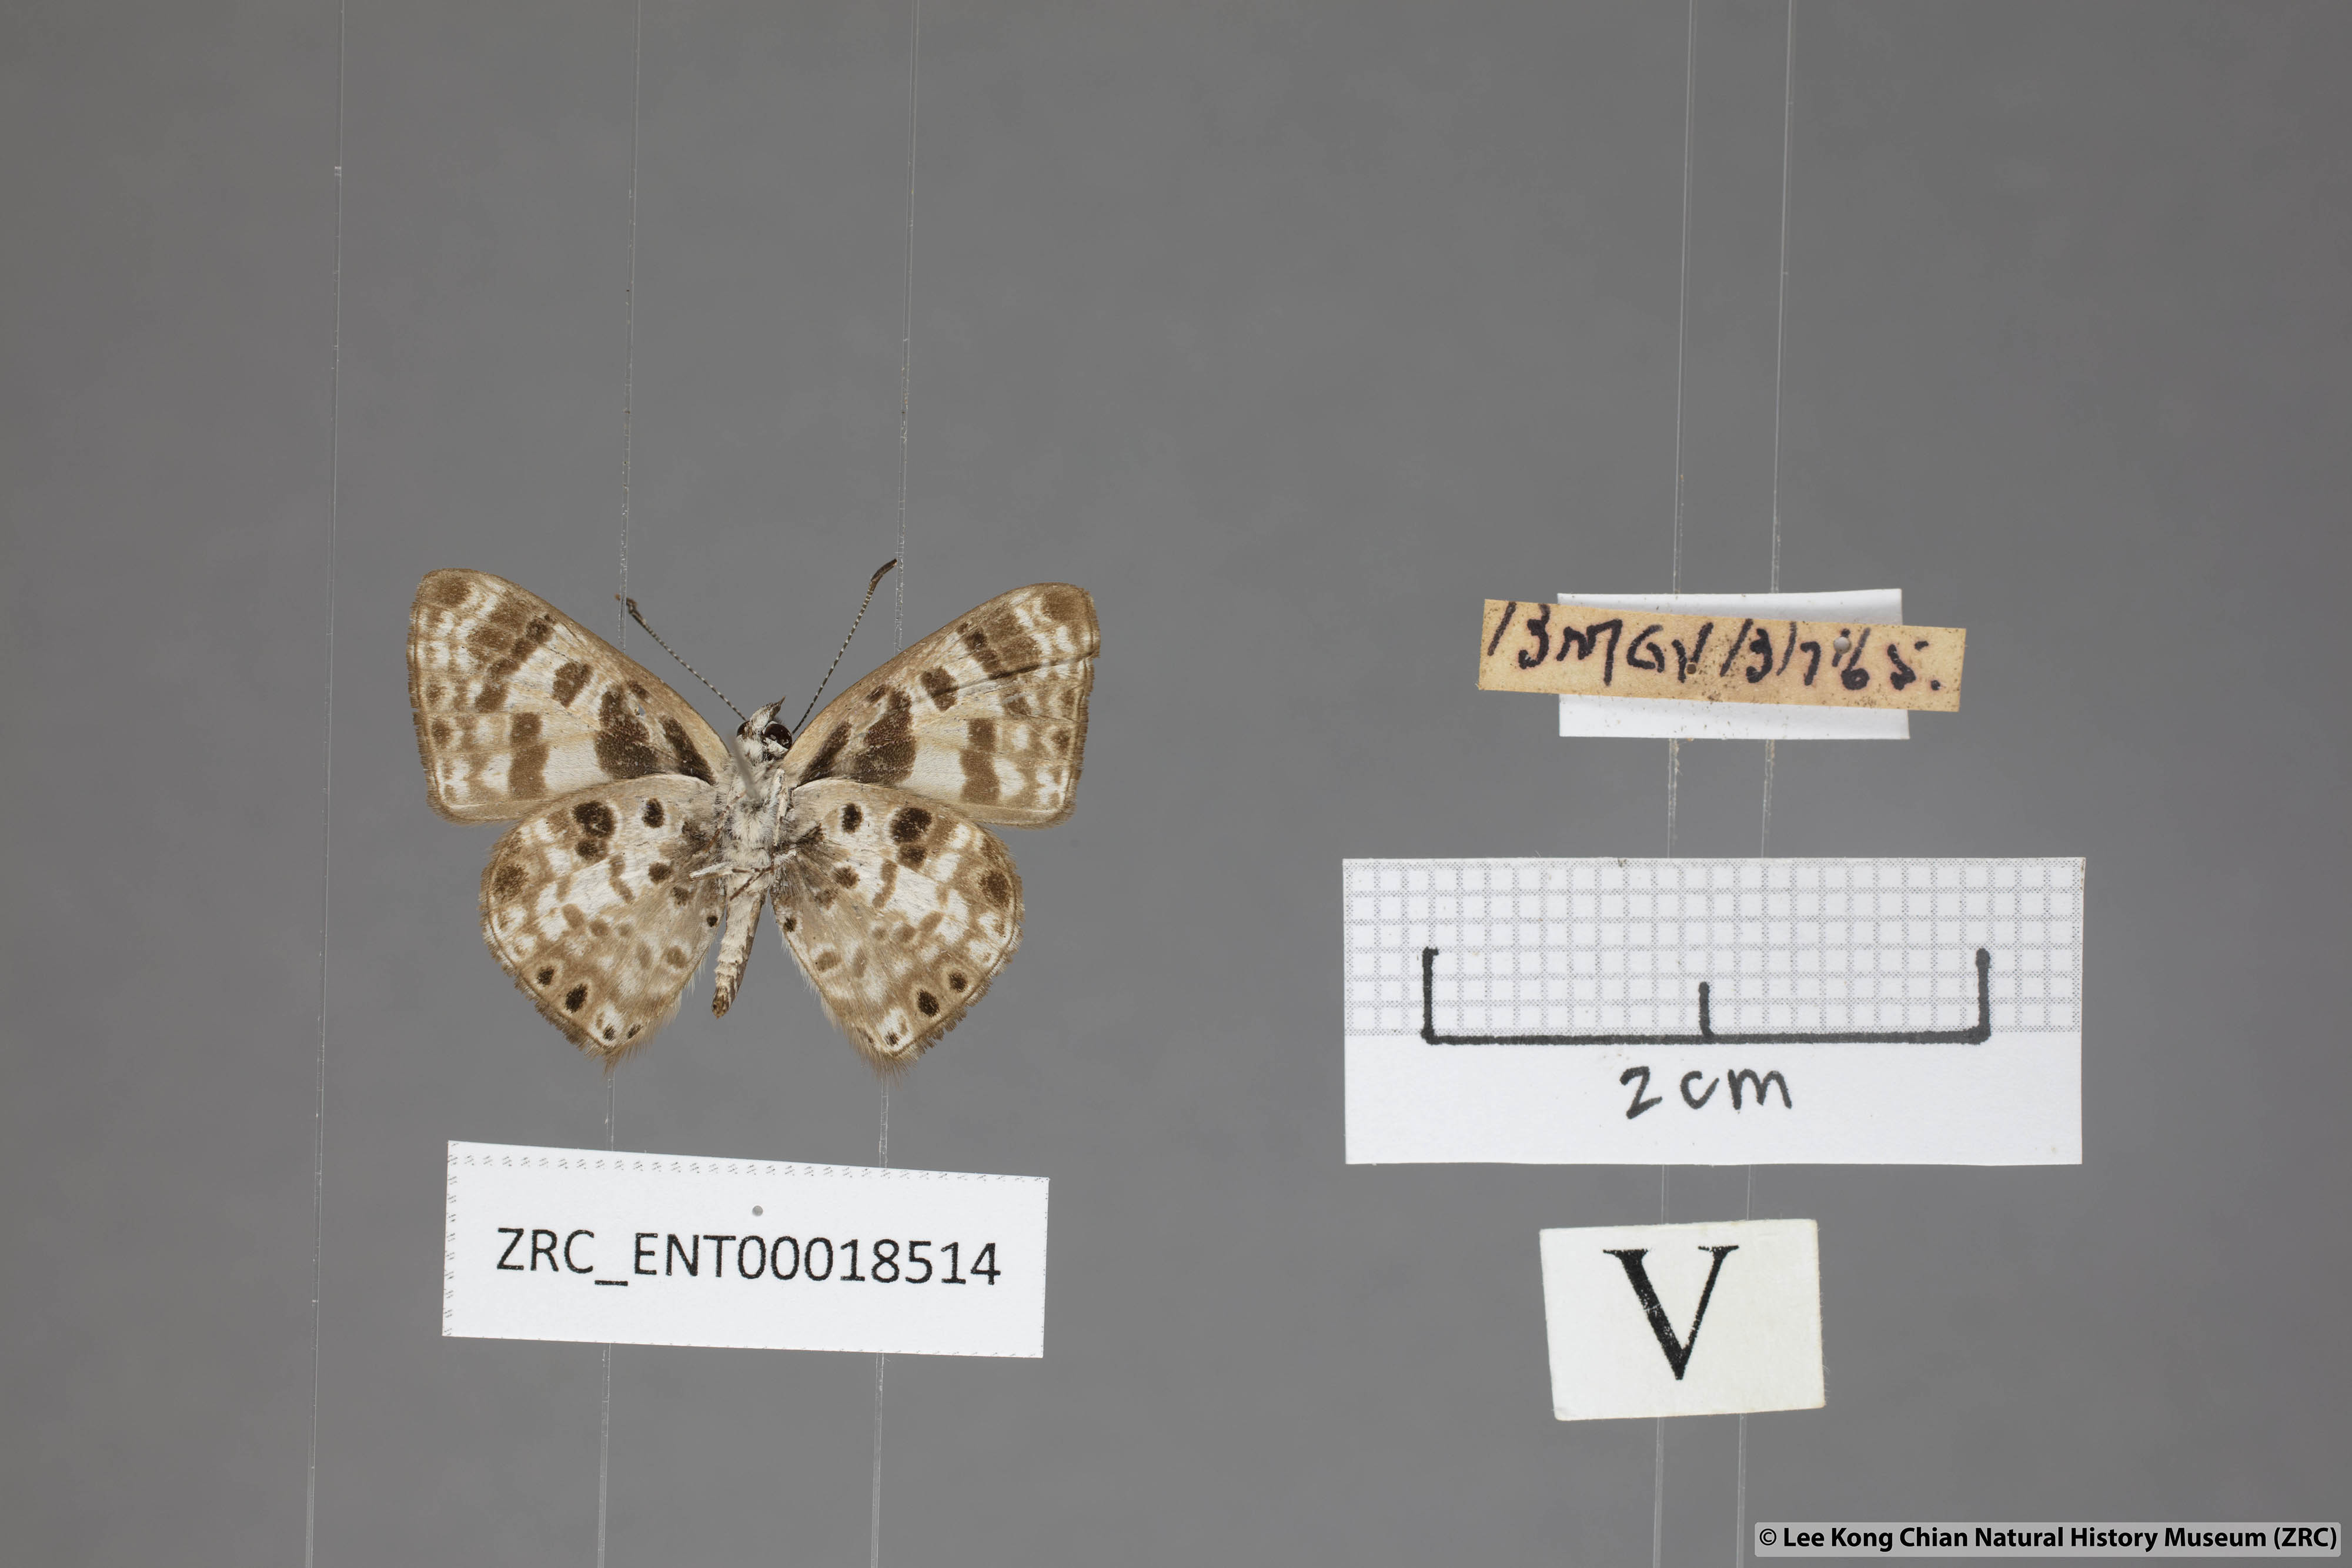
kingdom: Animalia
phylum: Arthropoda
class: Insecta
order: Lepidoptera
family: Lycaenidae
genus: Niphanda
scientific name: Niphanda cymbia
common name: Small pointed pierrot
